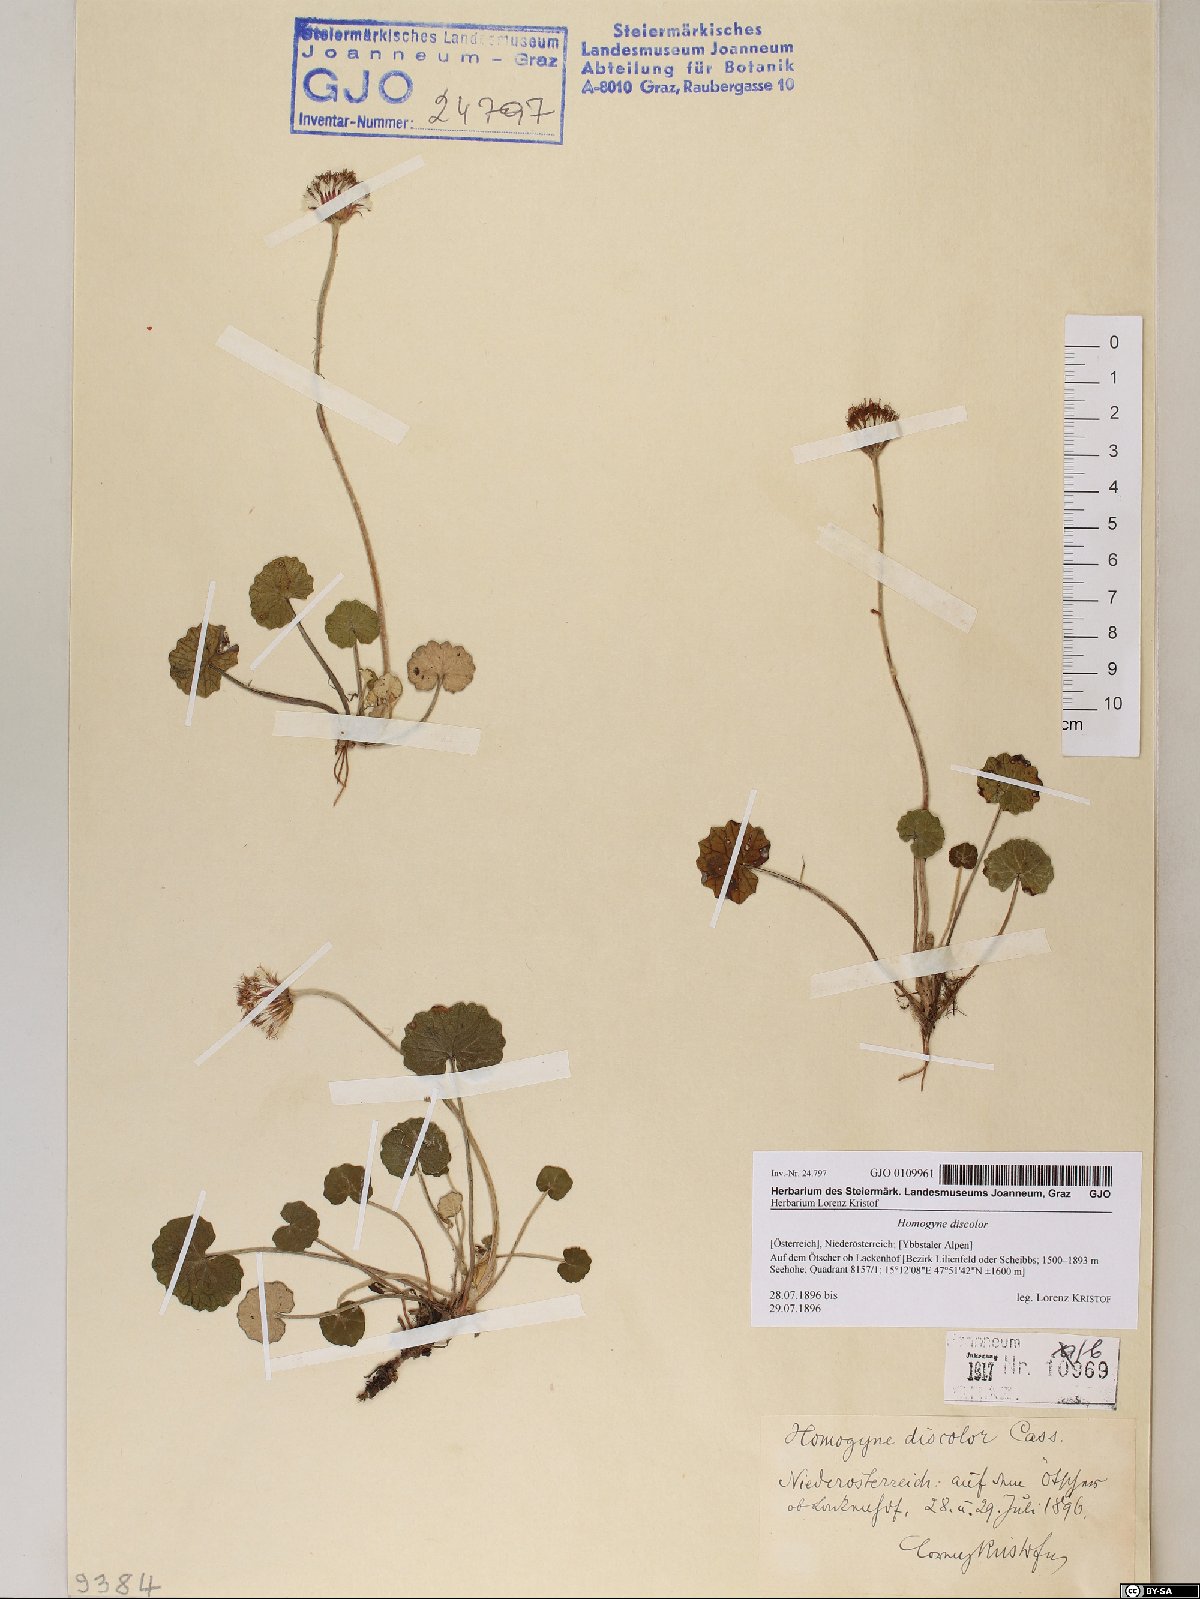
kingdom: Plantae
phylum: Tracheophyta
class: Magnoliopsida
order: Asterales
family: Asteraceae
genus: Homogyne
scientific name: Homogyne discolor
